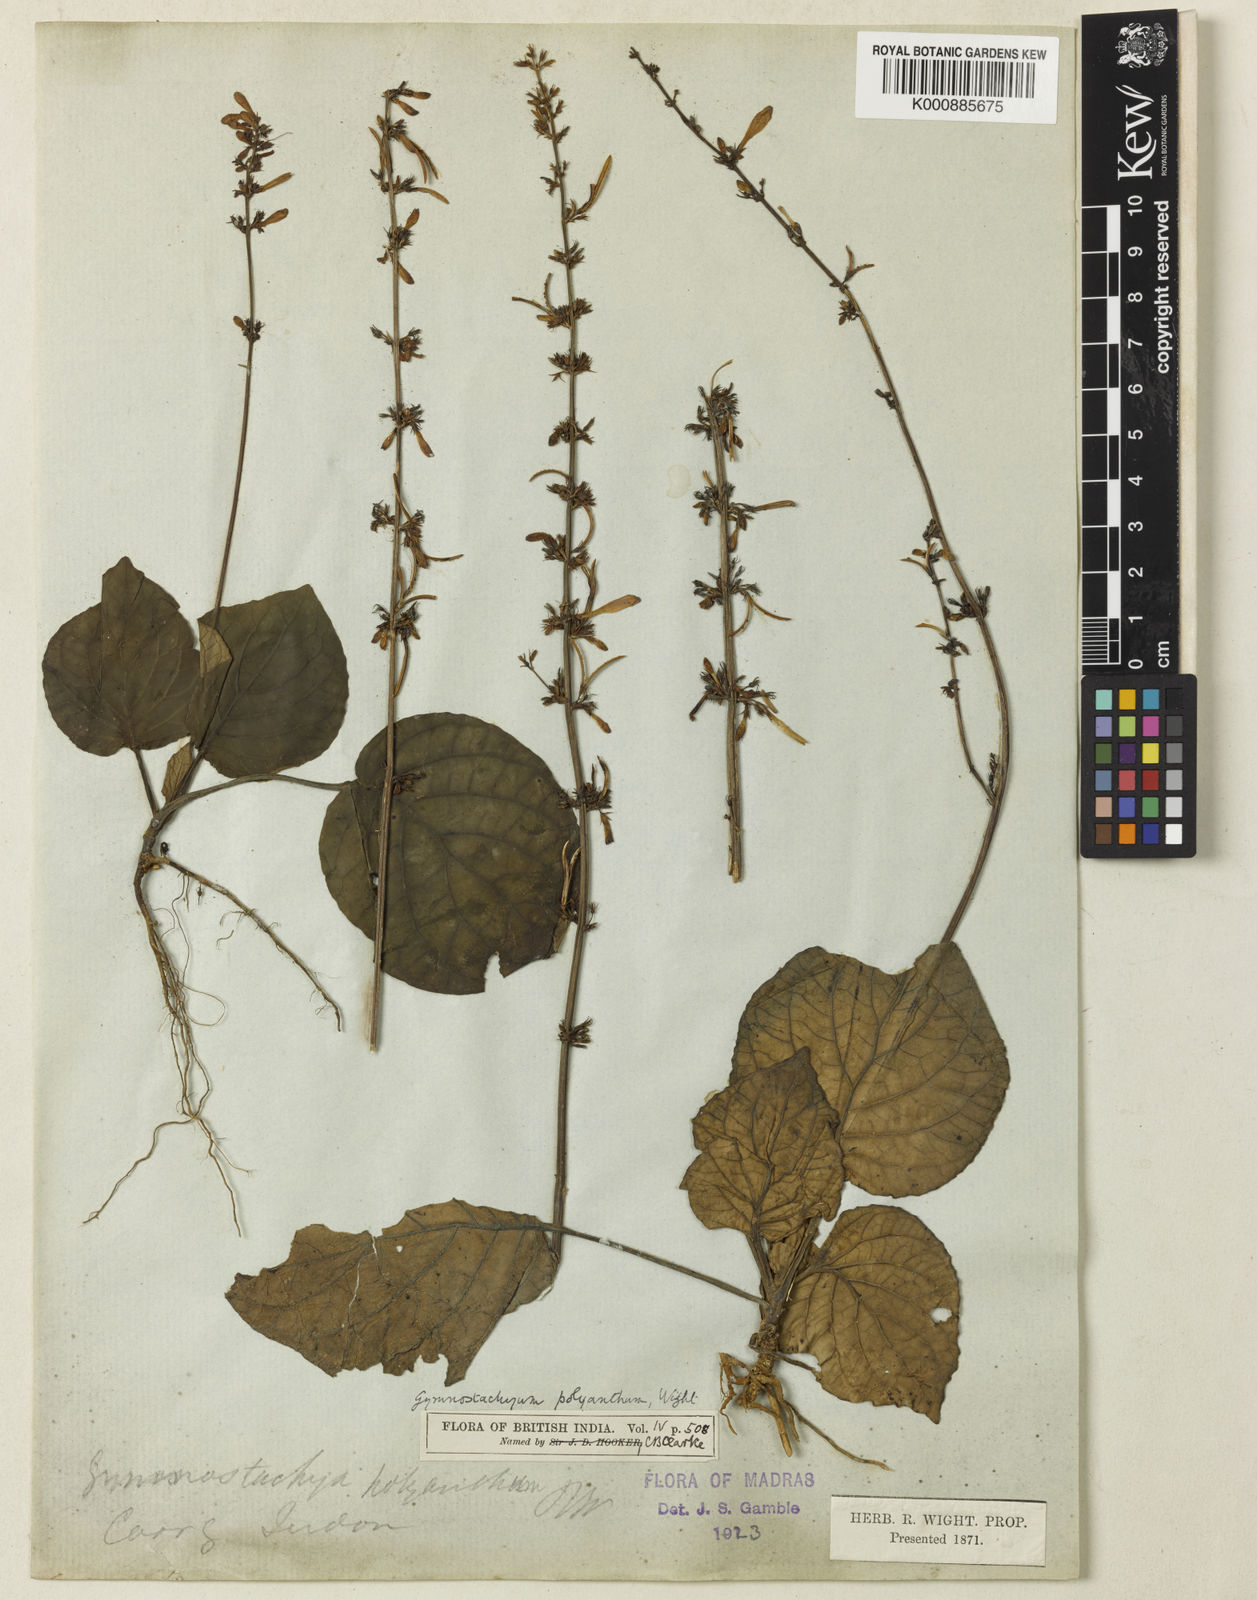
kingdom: Plantae
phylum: Tracheophyta
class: Magnoliopsida
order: Lamiales
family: Acanthaceae
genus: Gymnostachyum
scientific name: Gymnostachyum polyanthum
